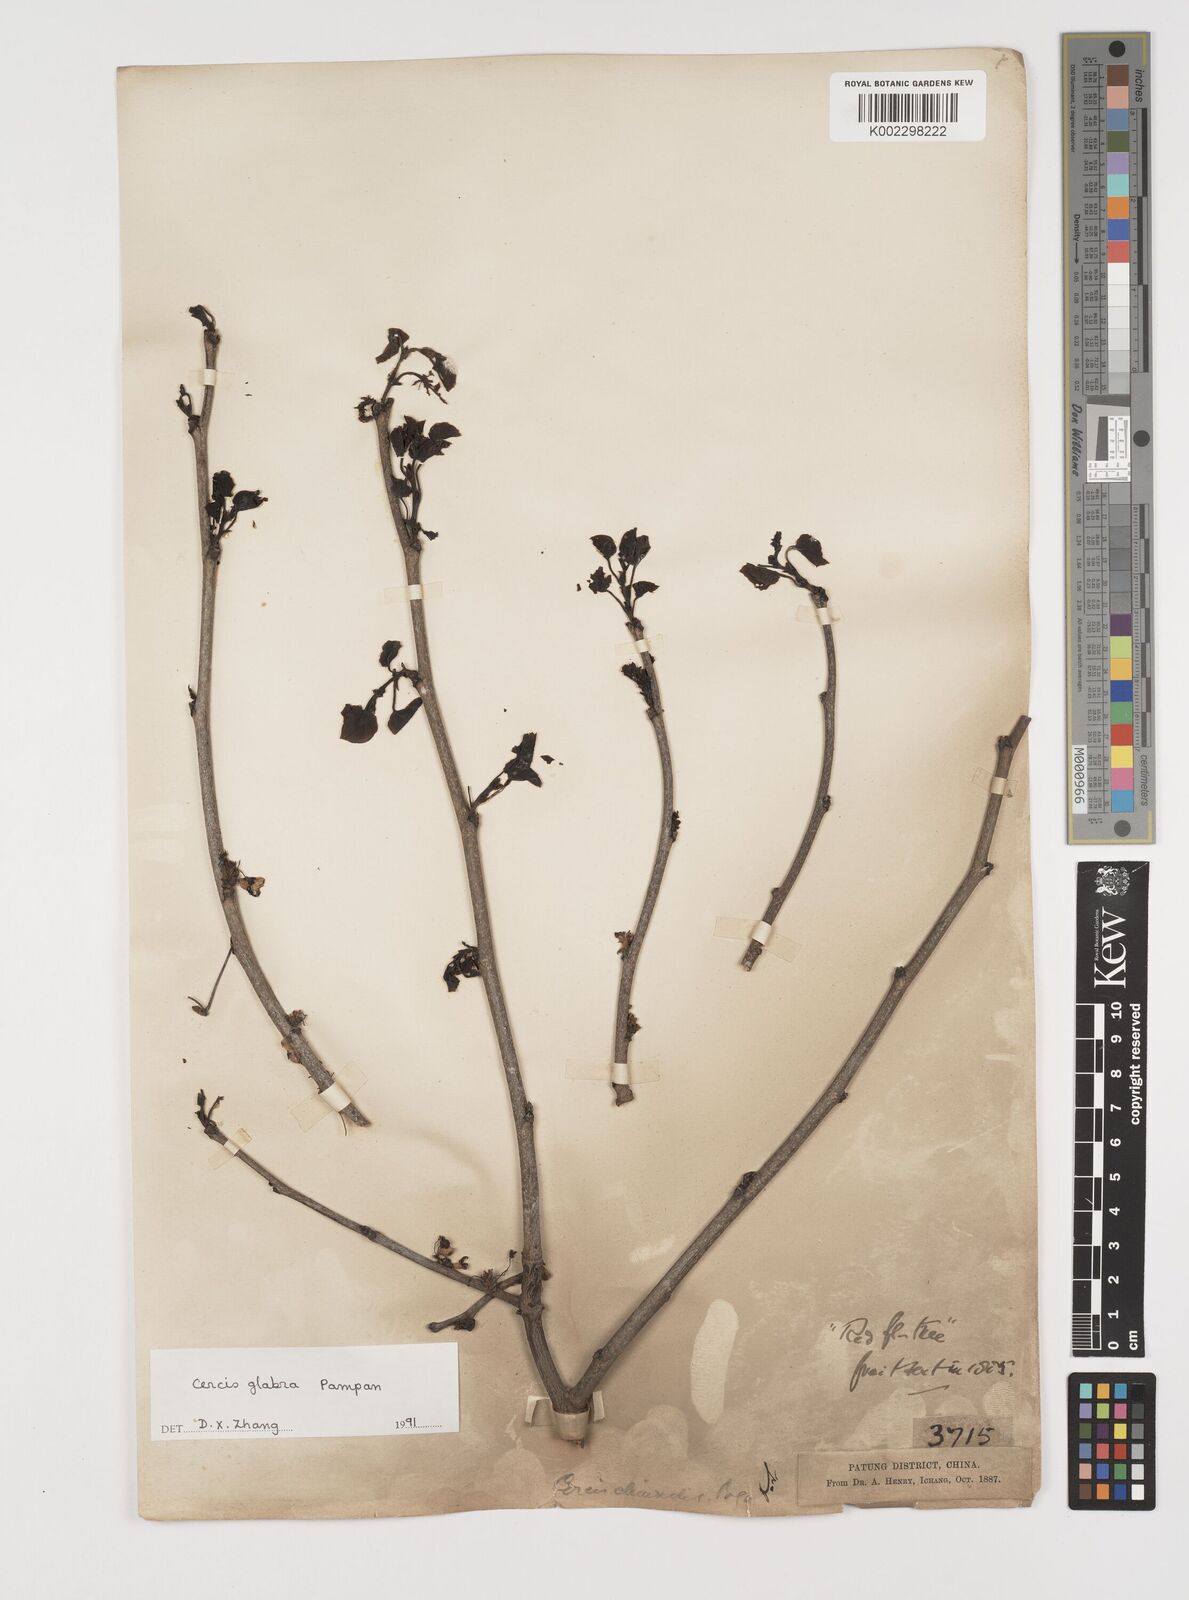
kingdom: Plantae
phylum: Tracheophyta
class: Magnoliopsida
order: Fabales
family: Fabaceae
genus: Cercis
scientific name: Cercis glabra
